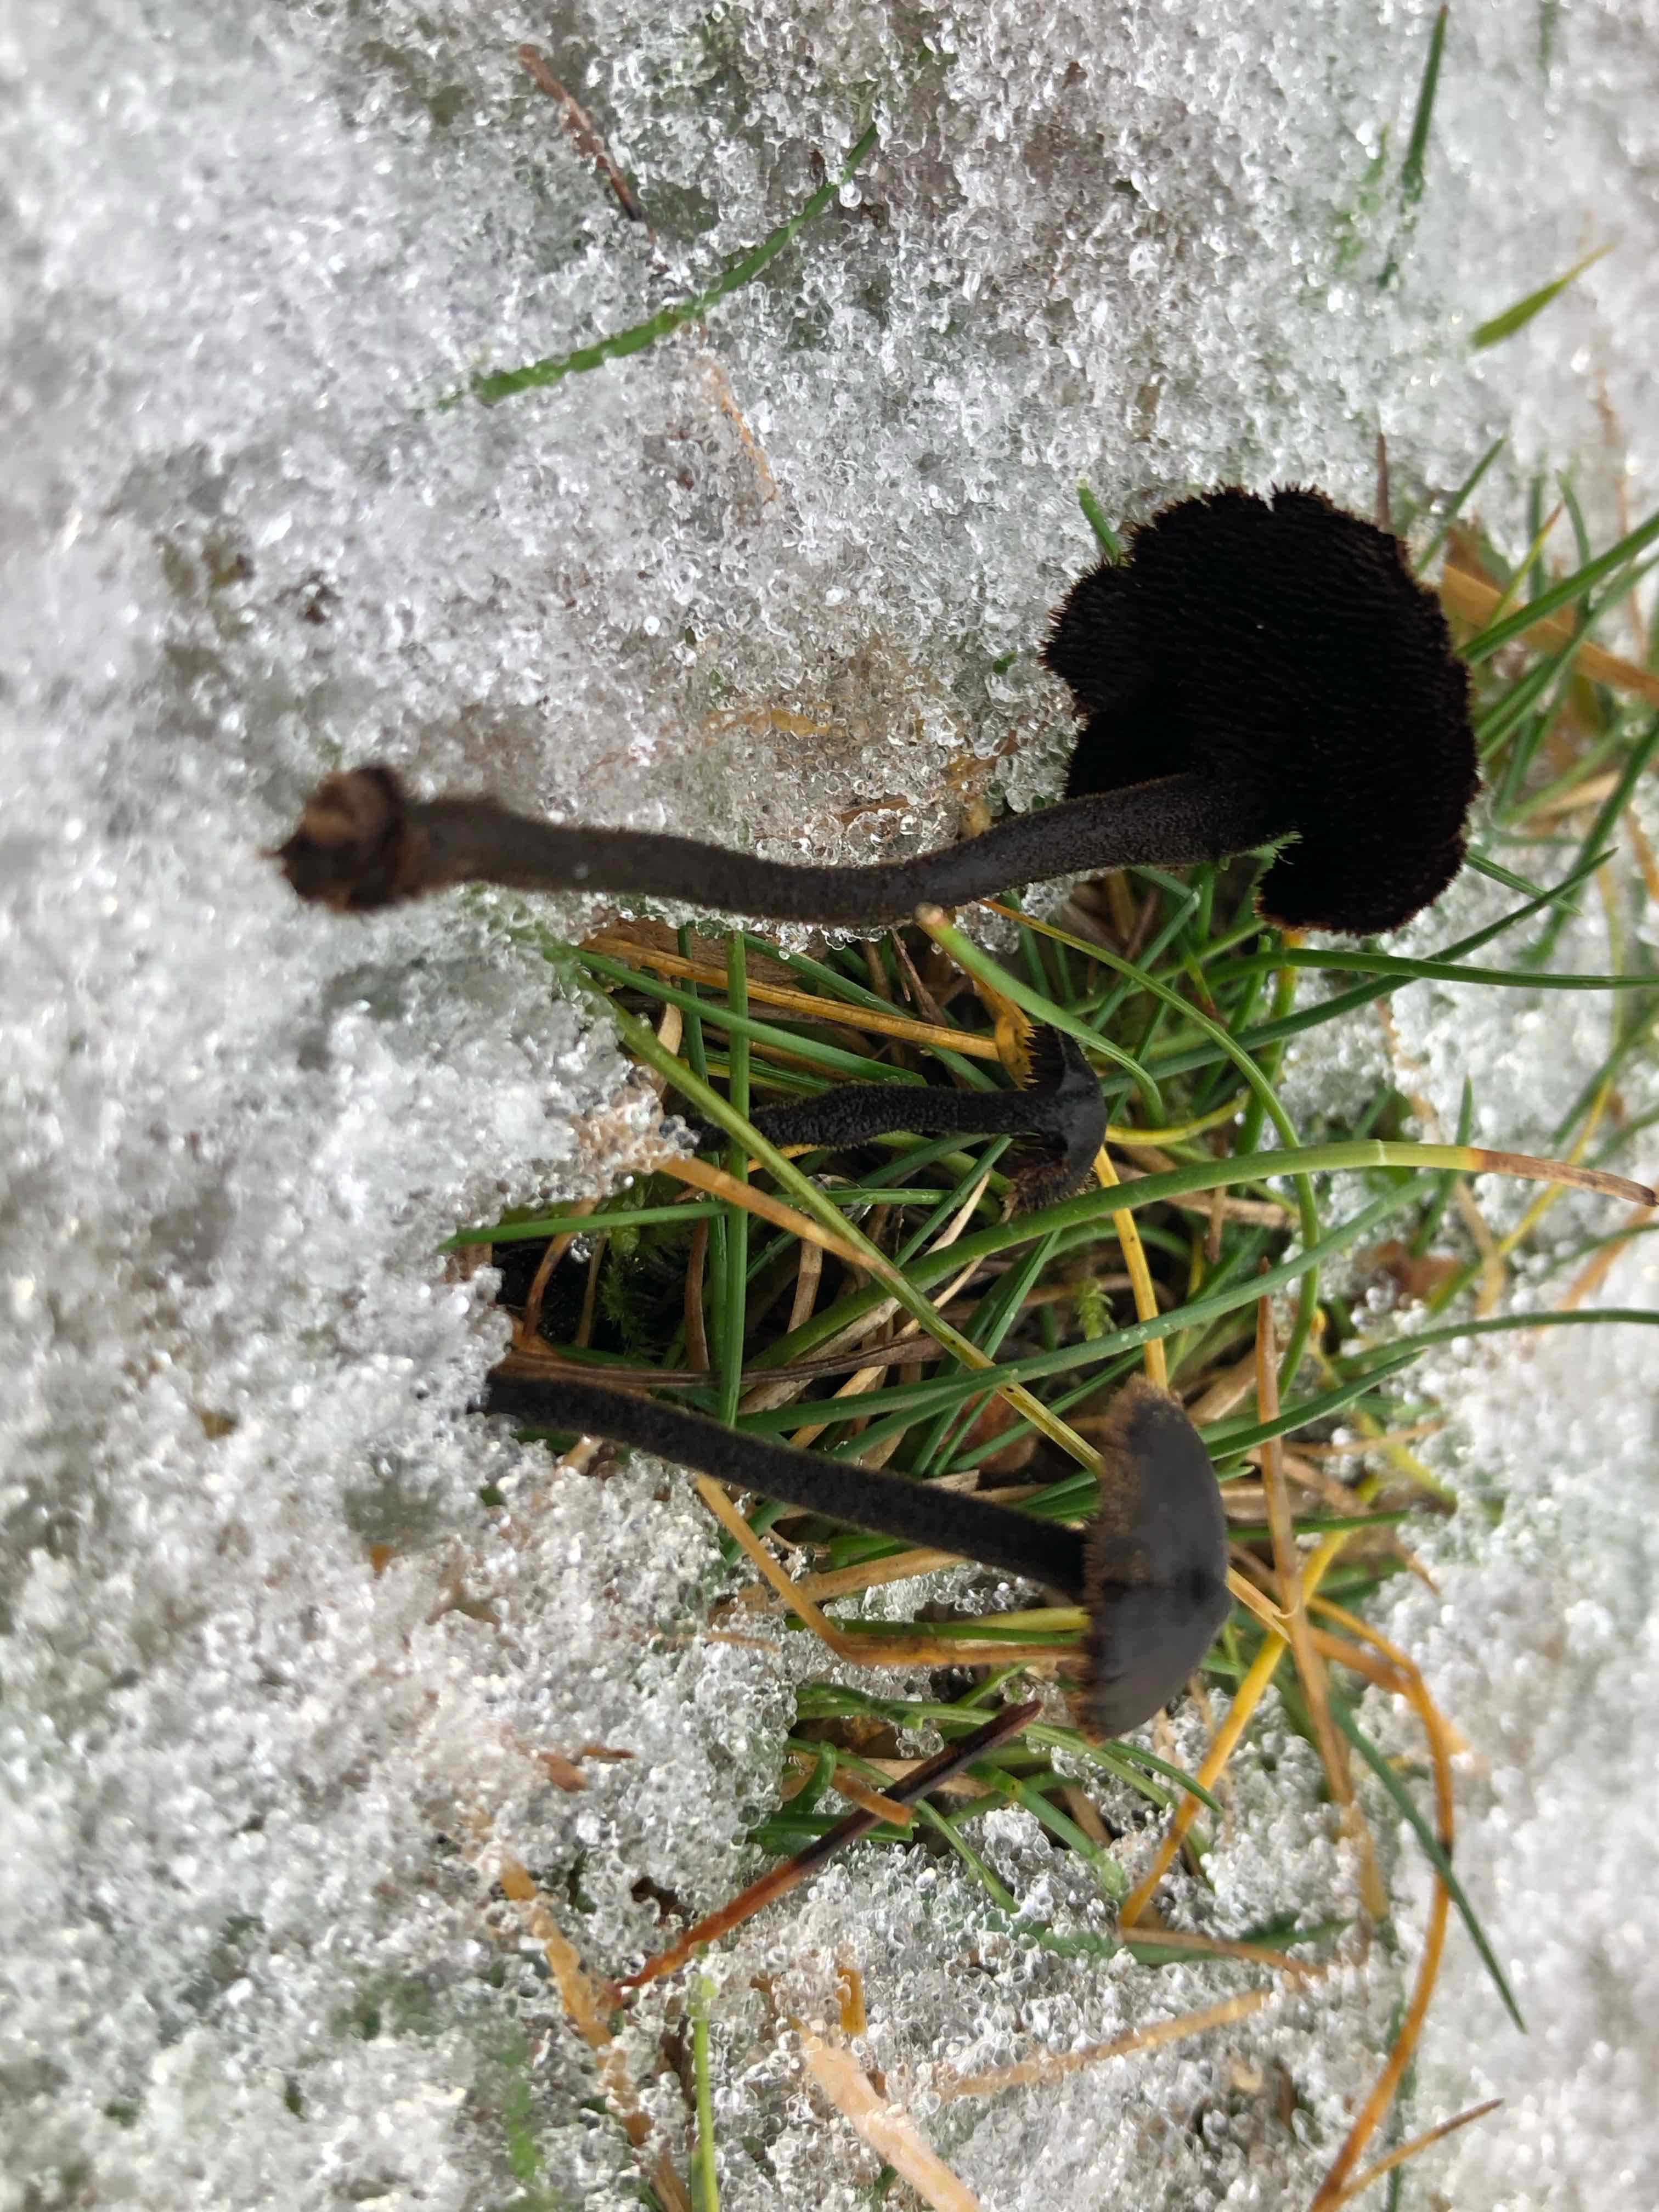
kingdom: Fungi
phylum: Basidiomycota
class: Agaricomycetes
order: Russulales
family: Auriscalpiaceae
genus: Auriscalpium
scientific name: Auriscalpium vulgare
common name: koglepigsvamp
